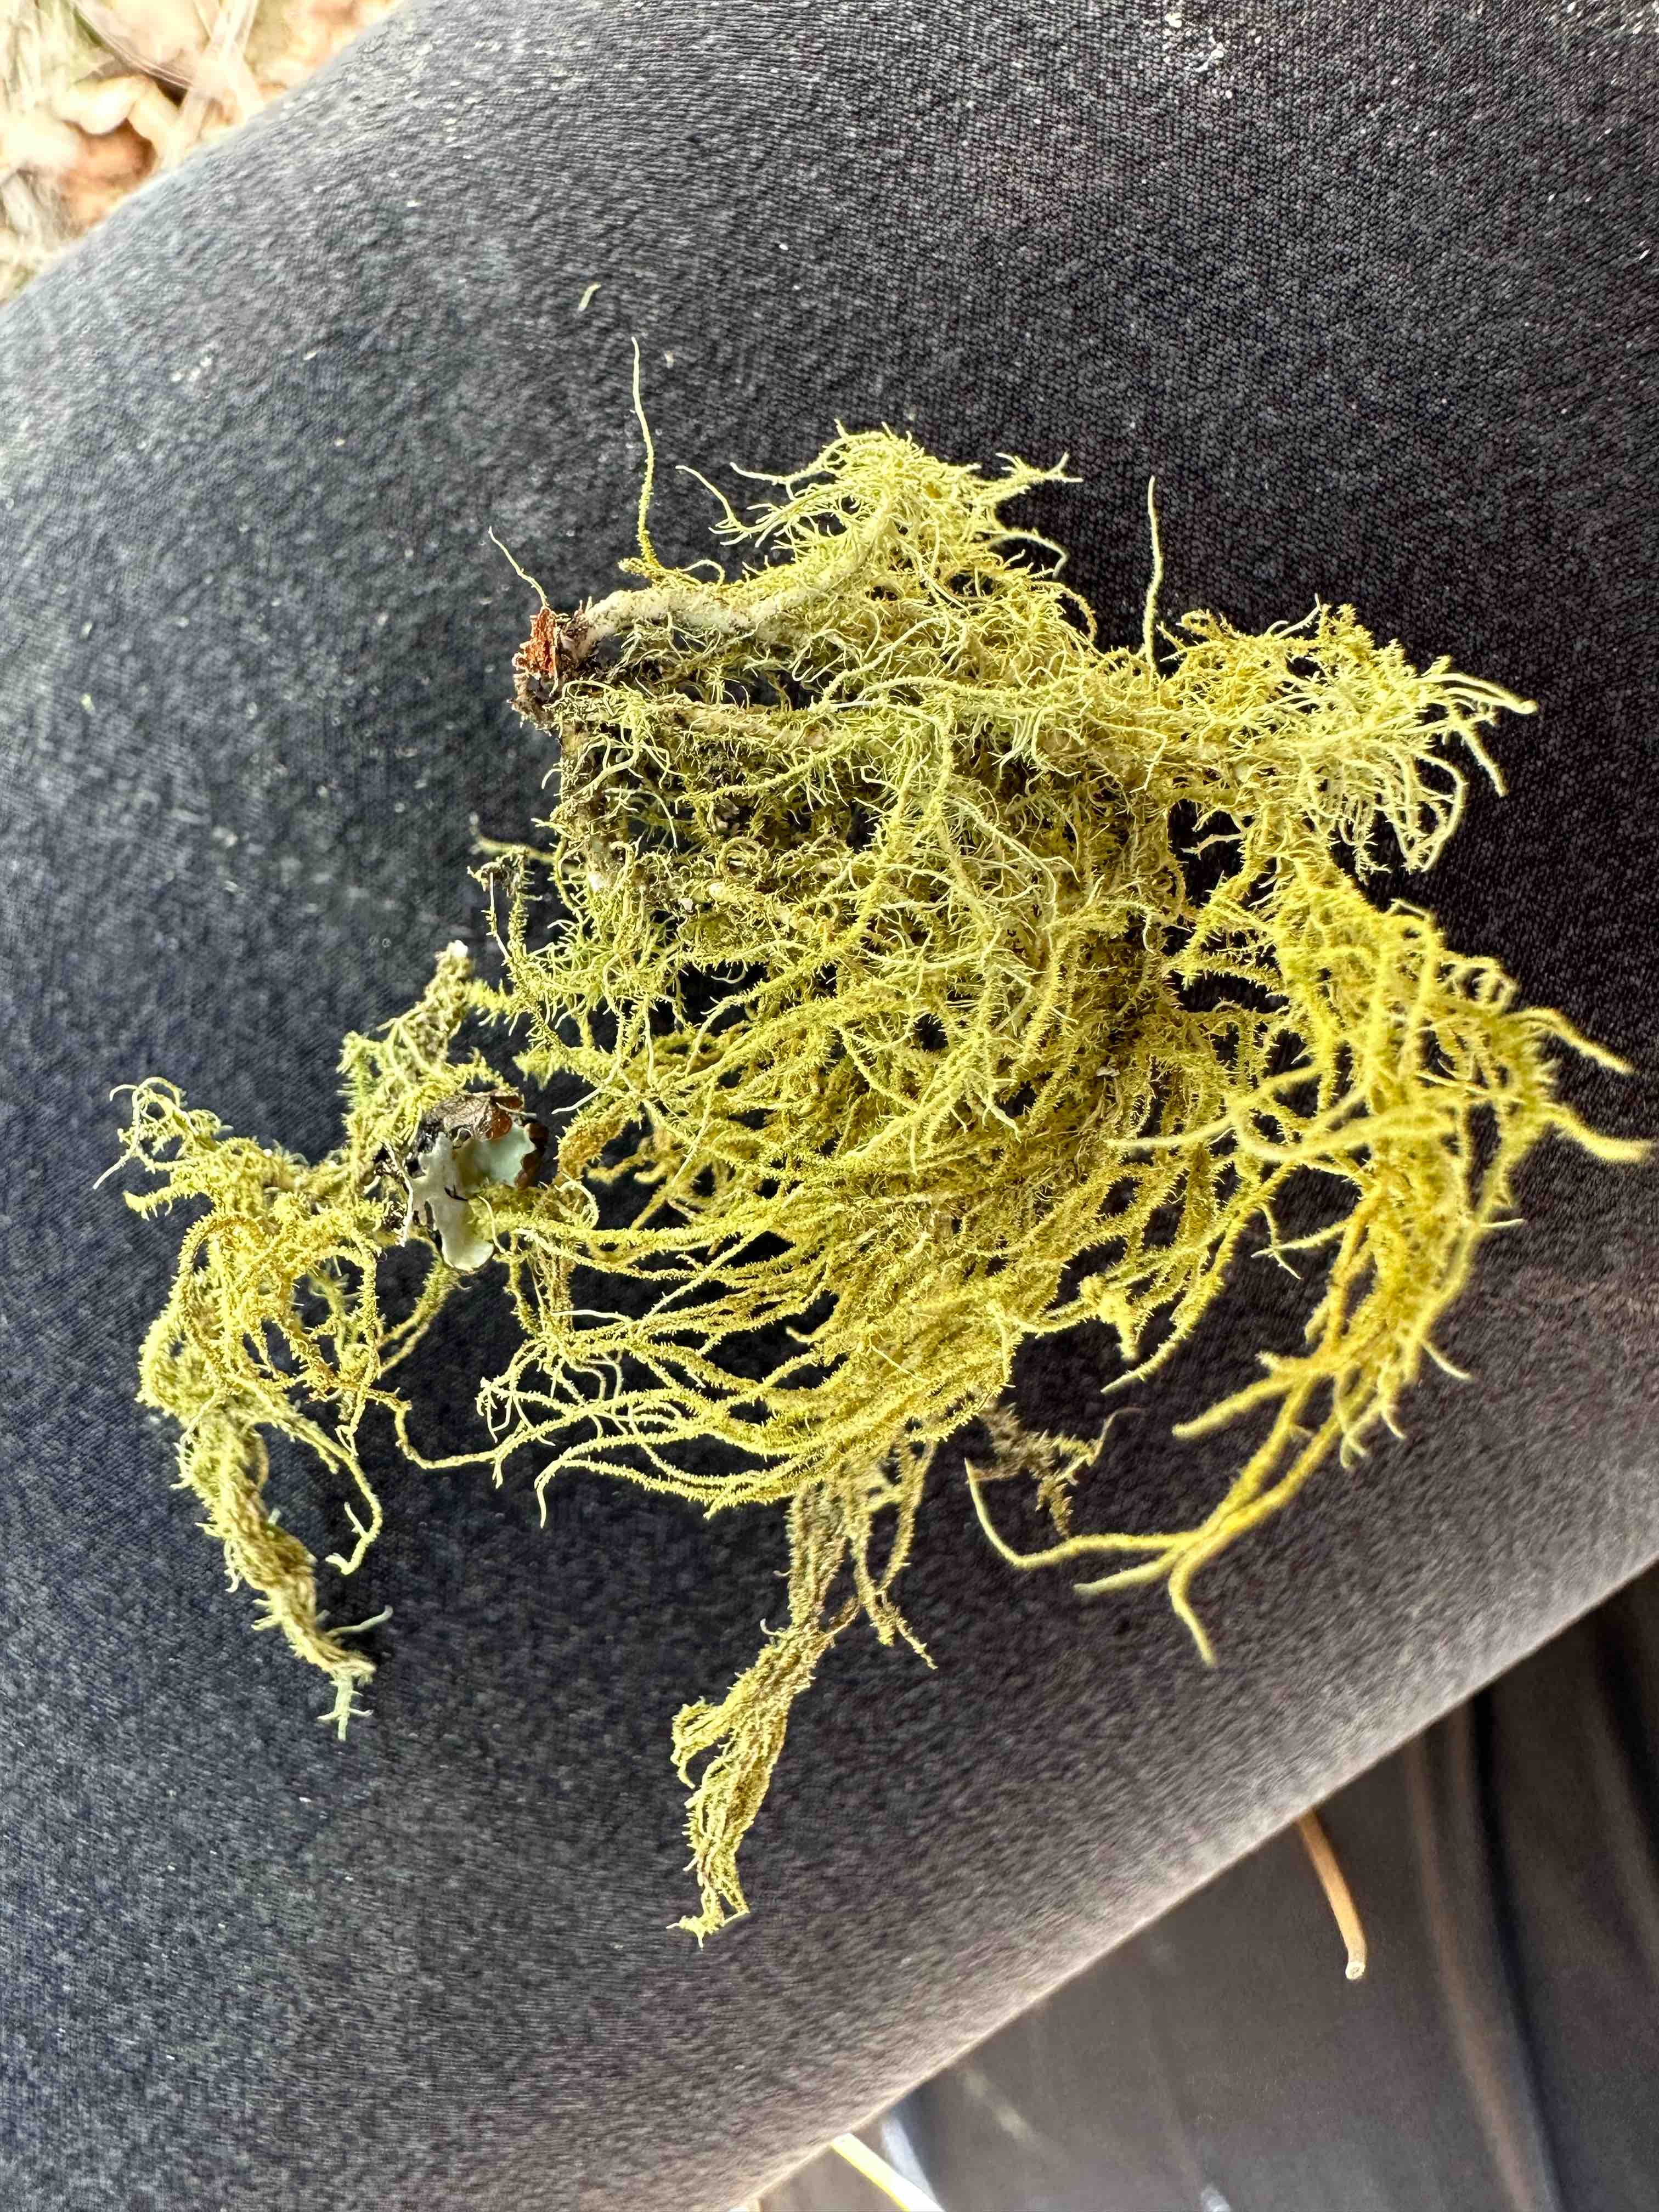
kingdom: Fungi
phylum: Ascomycota
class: Lecanoromycetes
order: Lecanorales
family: Parmeliaceae
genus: Usnea
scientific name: Usnea subfloridana
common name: busket skæglav
